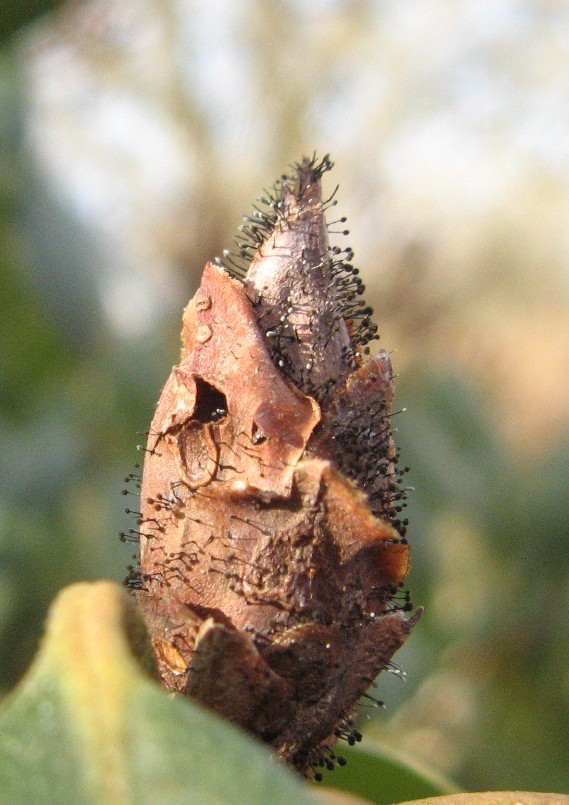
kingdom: Fungi
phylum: Ascomycota
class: Dothideomycetes
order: Pleosporales
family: Melanommataceae
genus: Seifertia
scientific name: Seifertia azaleae
